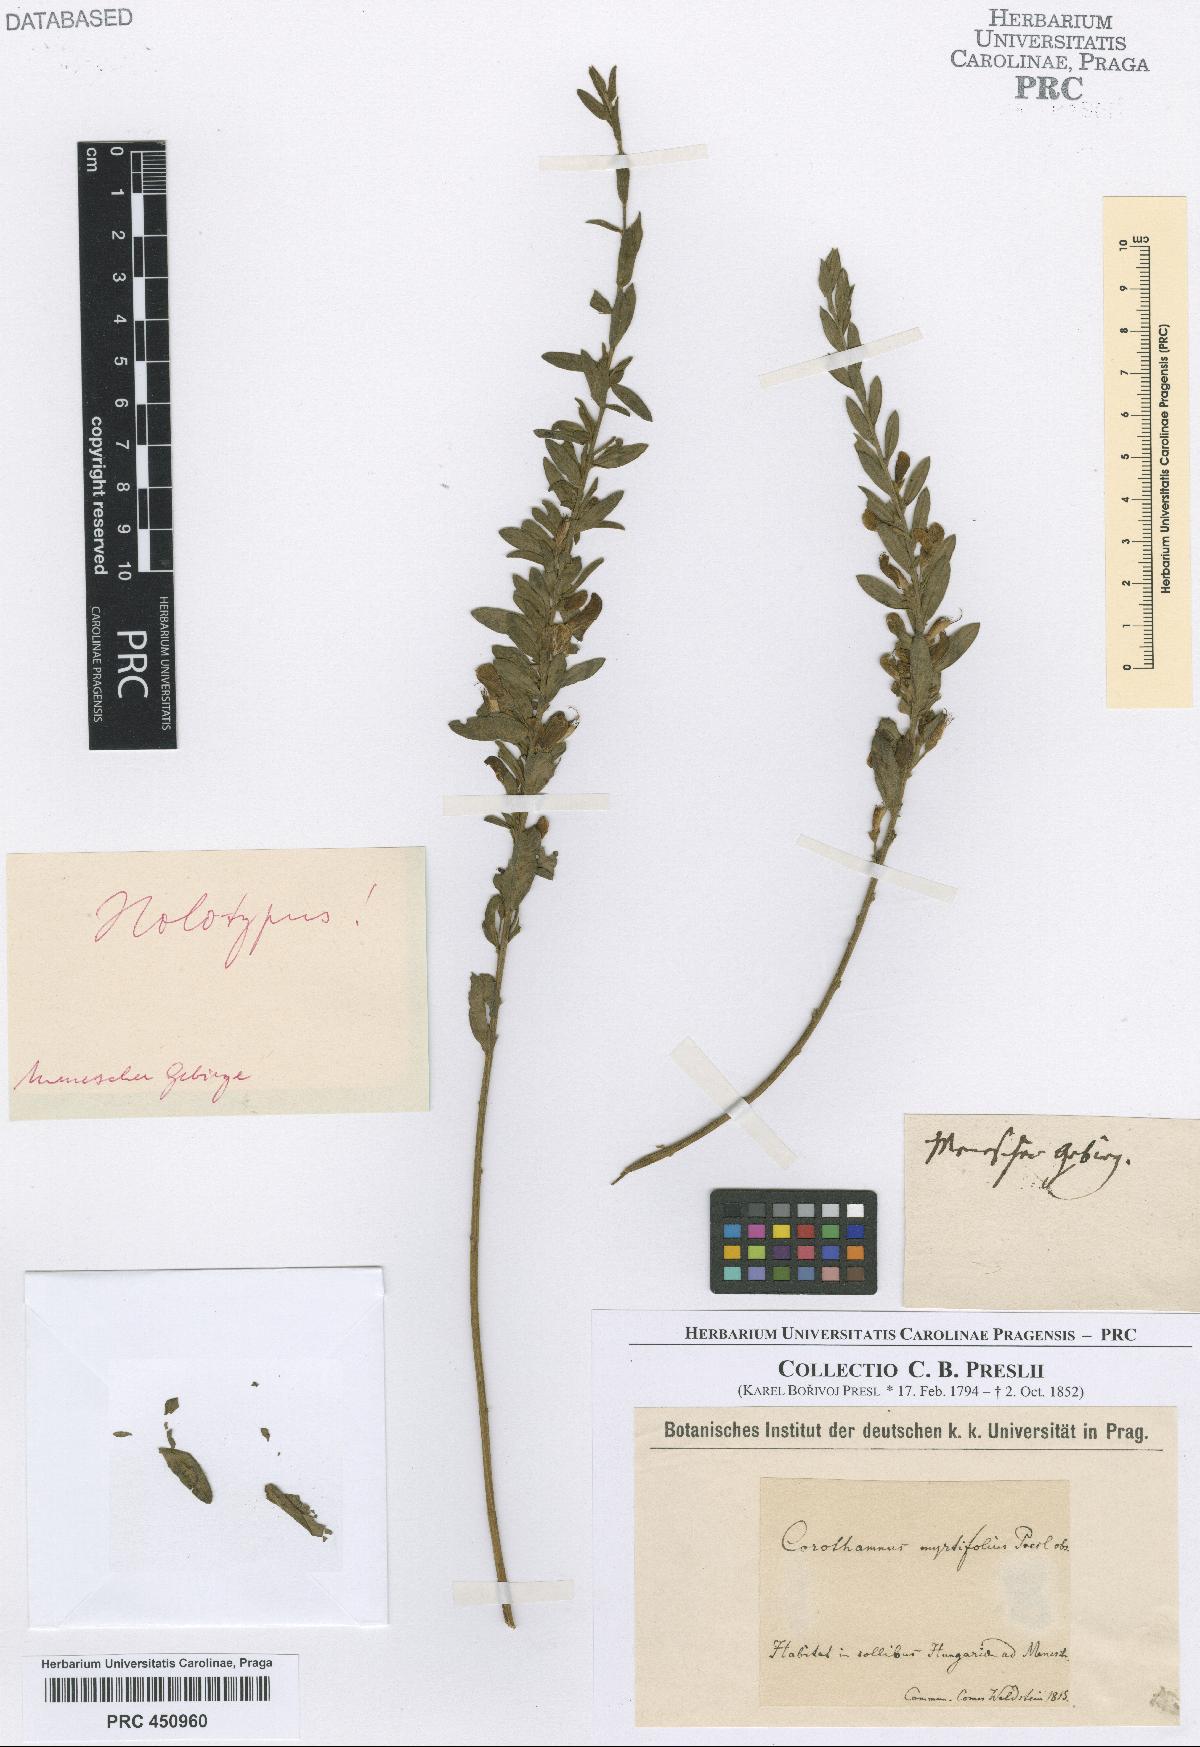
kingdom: Plantae
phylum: Tracheophyta
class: Magnoliopsida
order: Fabales
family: Fabaceae
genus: Cytisus
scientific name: Cytisus procumbens
